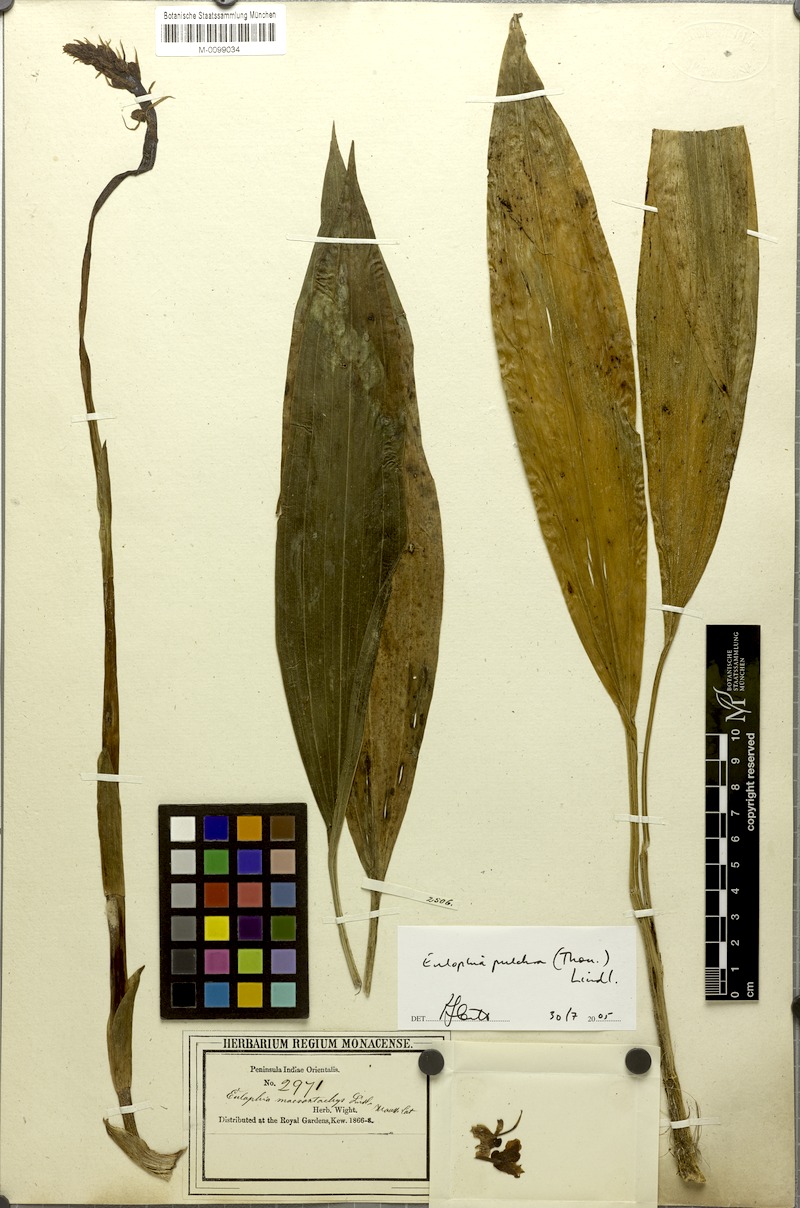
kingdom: Plantae
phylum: Tracheophyta
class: Liliopsida
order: Asparagales
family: Orchidaceae
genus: Eulophia
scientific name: Eulophia pulchra
